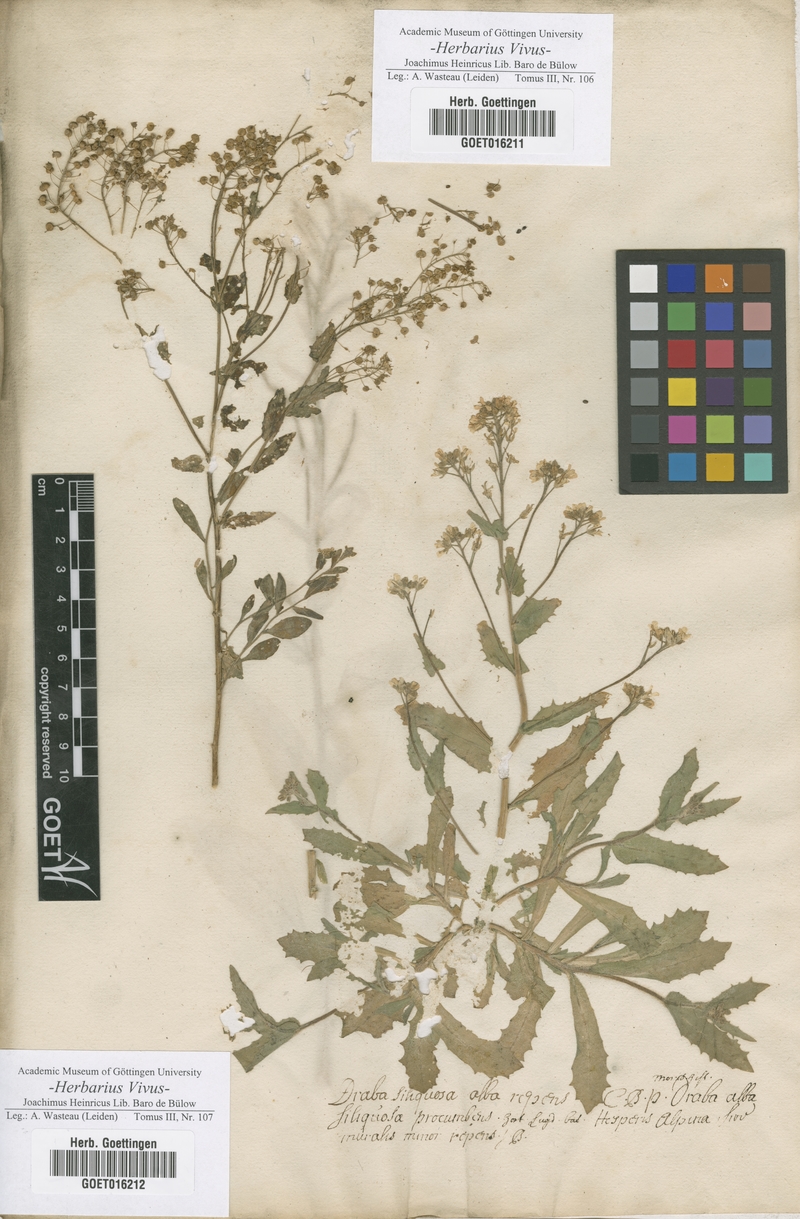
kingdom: Plantae
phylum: Tracheophyta
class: Magnoliopsida
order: Brassicales
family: Brassicaceae
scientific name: Brassicaceae
